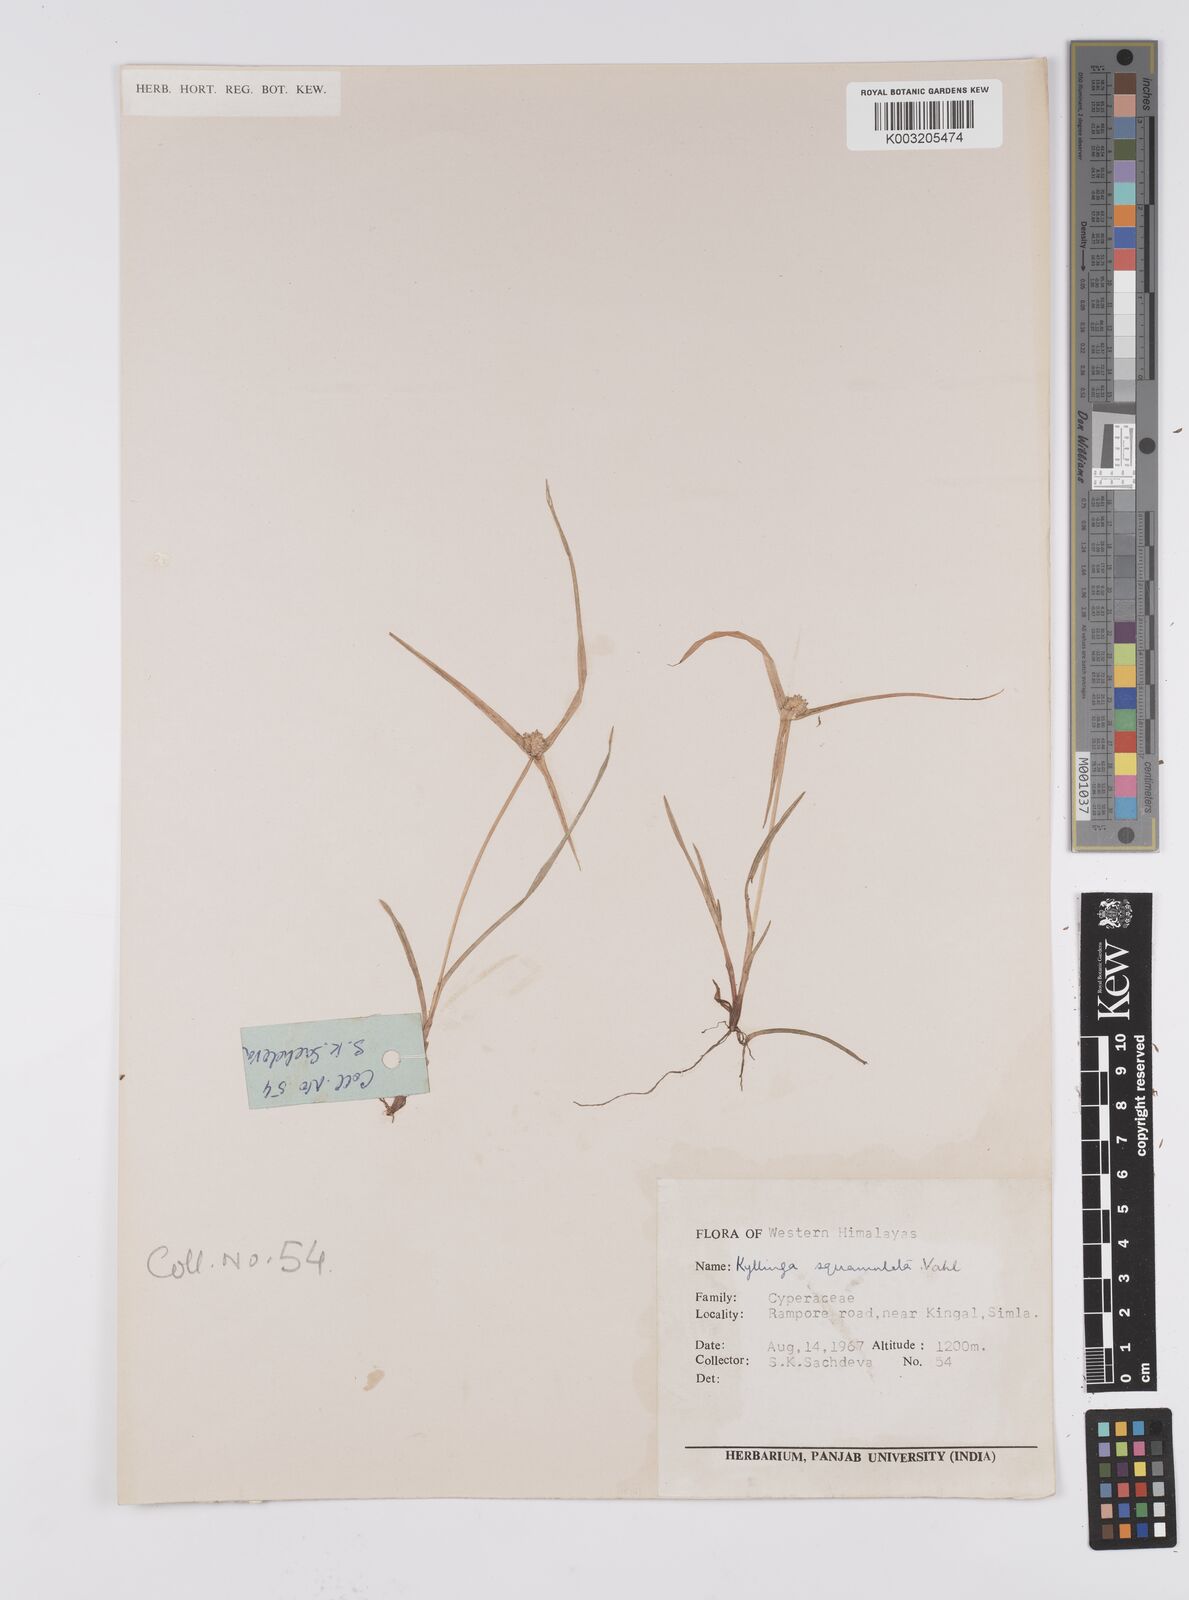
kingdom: Plantae
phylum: Tracheophyta
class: Liliopsida
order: Poales
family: Cyperaceae
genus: Cyperus
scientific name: Cyperus
